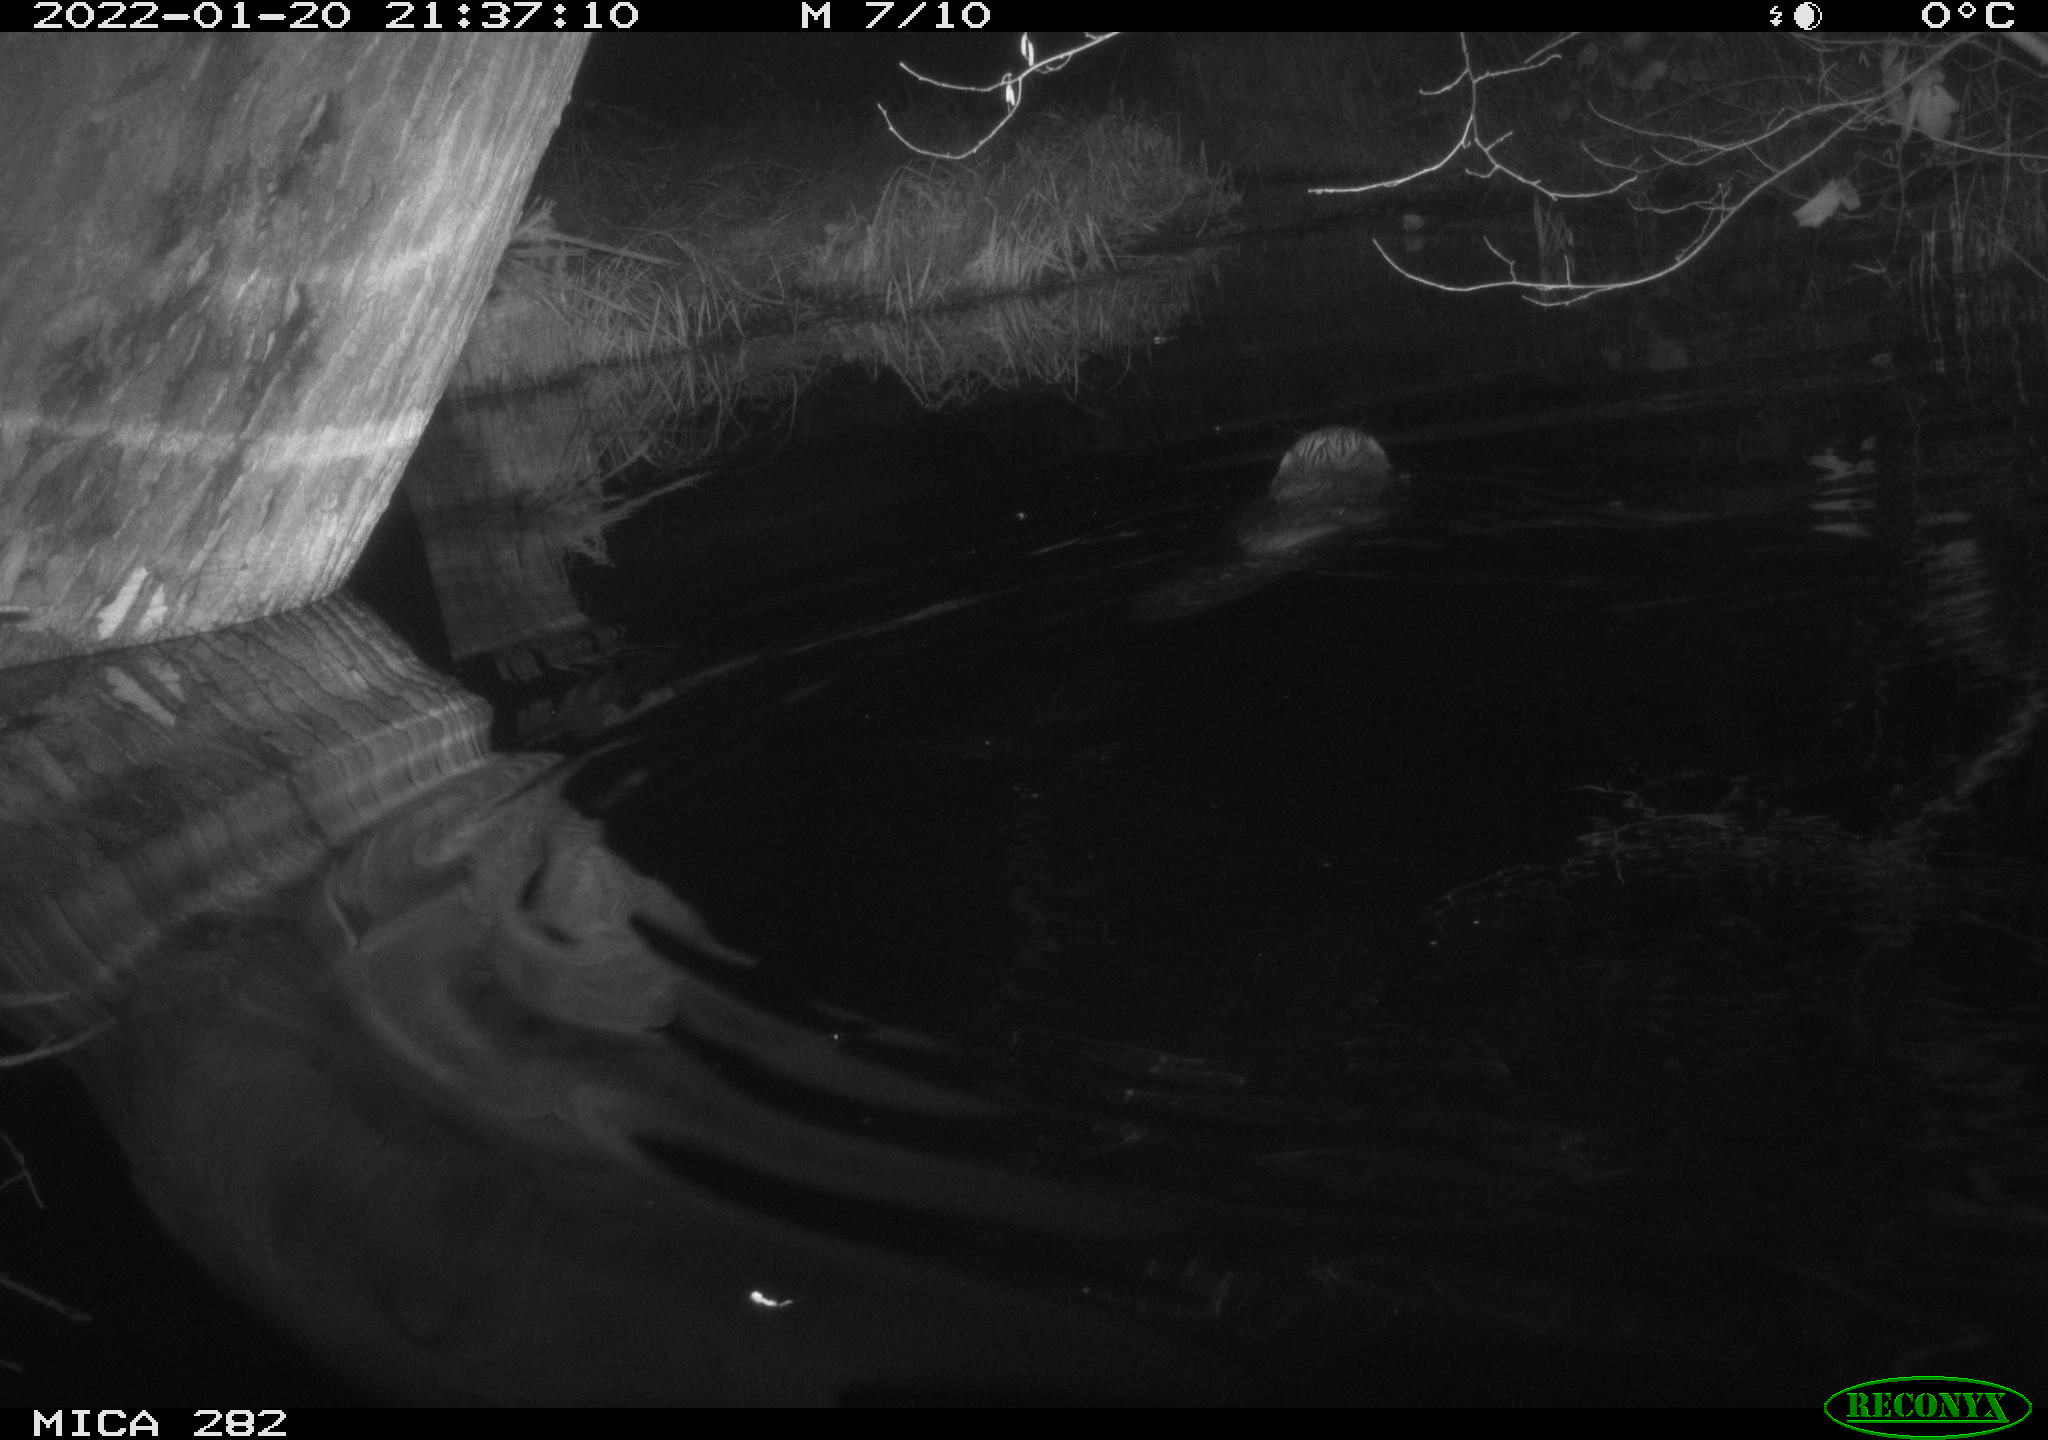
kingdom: Animalia
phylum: Chordata
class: Mammalia
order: Rodentia
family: Castoridae
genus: Castor
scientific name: Castor fiber
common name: Eurasian beaver
